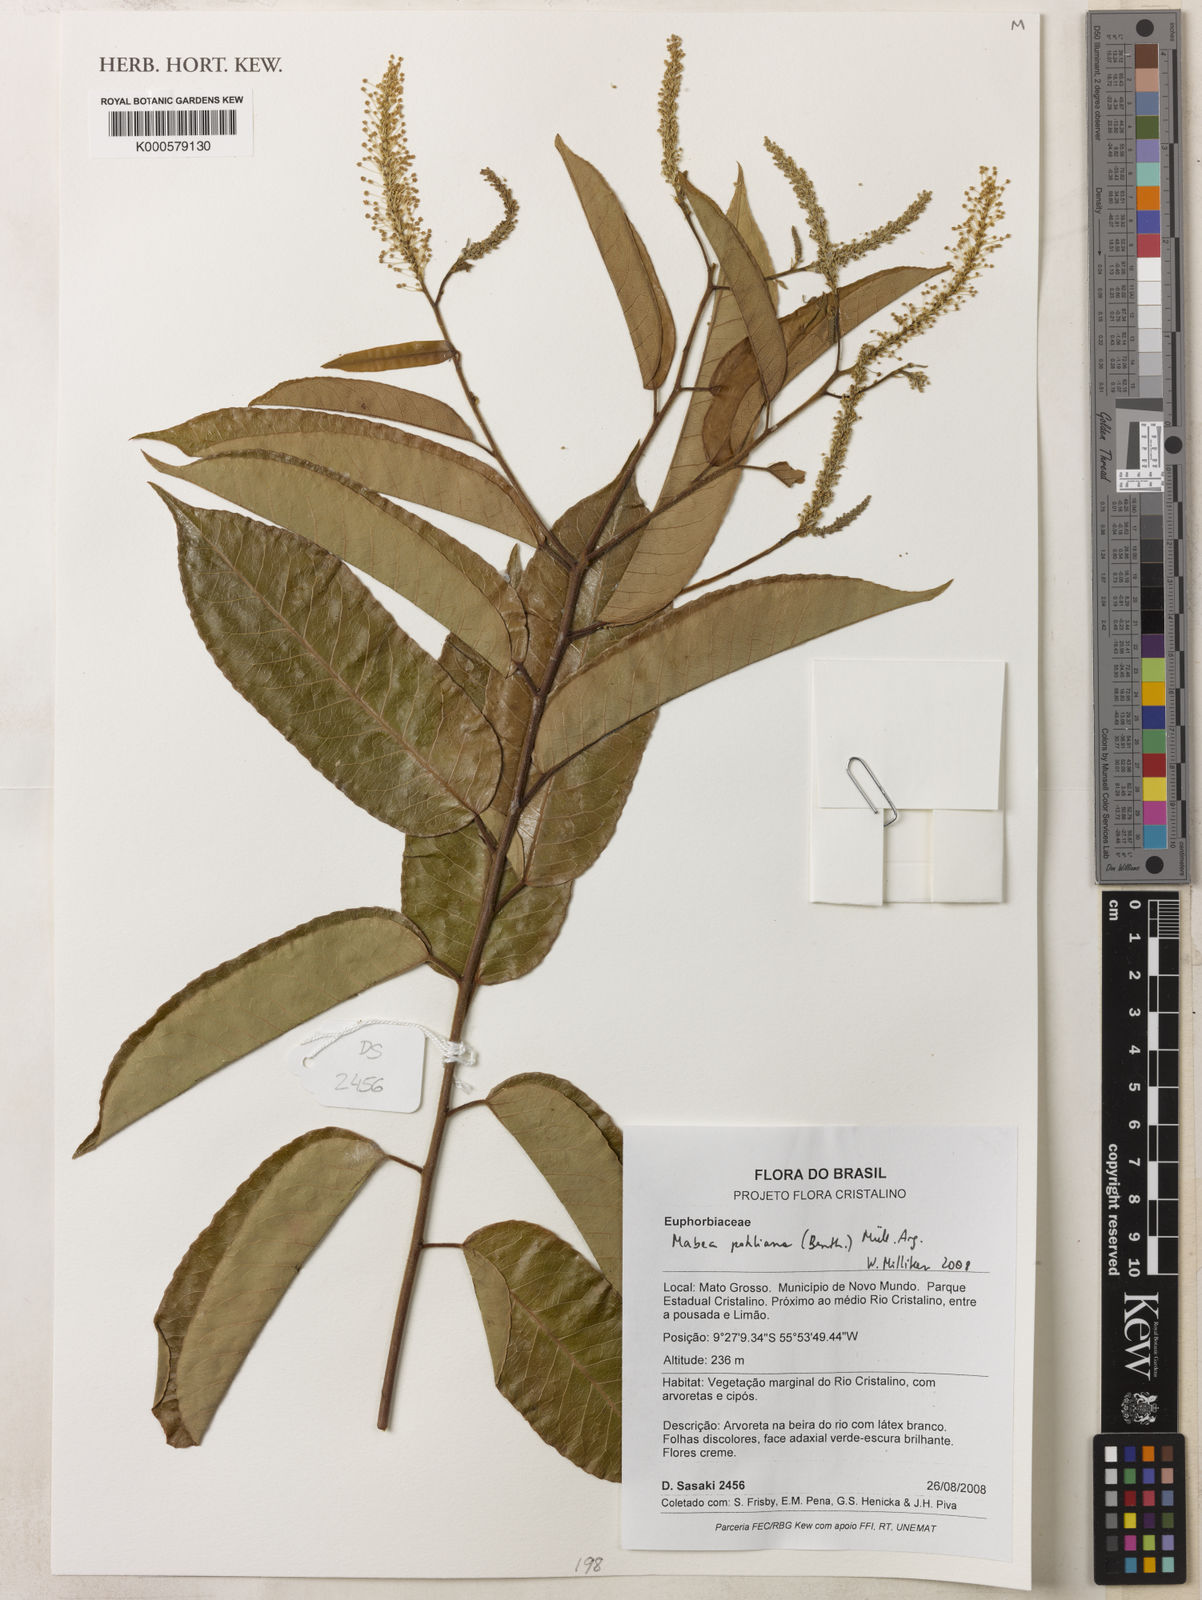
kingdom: Plantae
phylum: Tracheophyta
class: Magnoliopsida
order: Malpighiales
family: Euphorbiaceae
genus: Mabea
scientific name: Mabea
